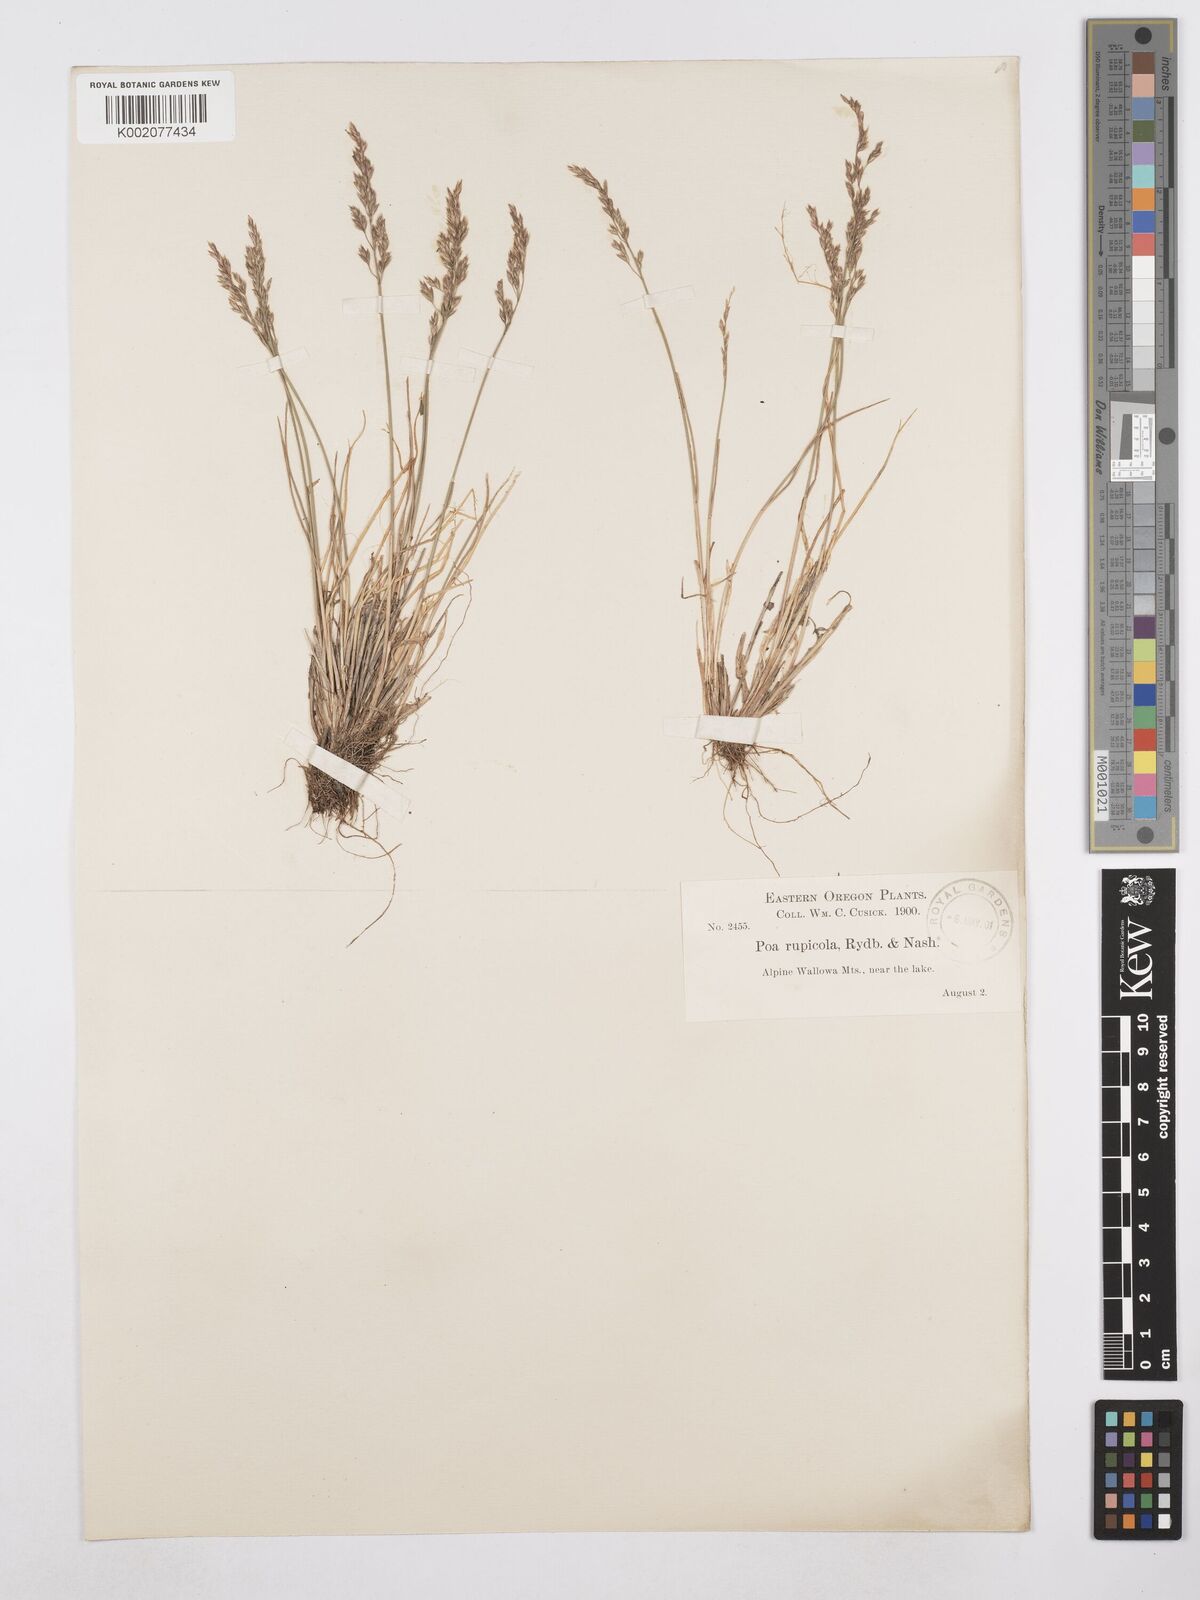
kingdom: Plantae
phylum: Tracheophyta
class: Liliopsida
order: Poales
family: Poaceae
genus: Poa
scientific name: Poa glauca
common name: Glaucous bluegrass
